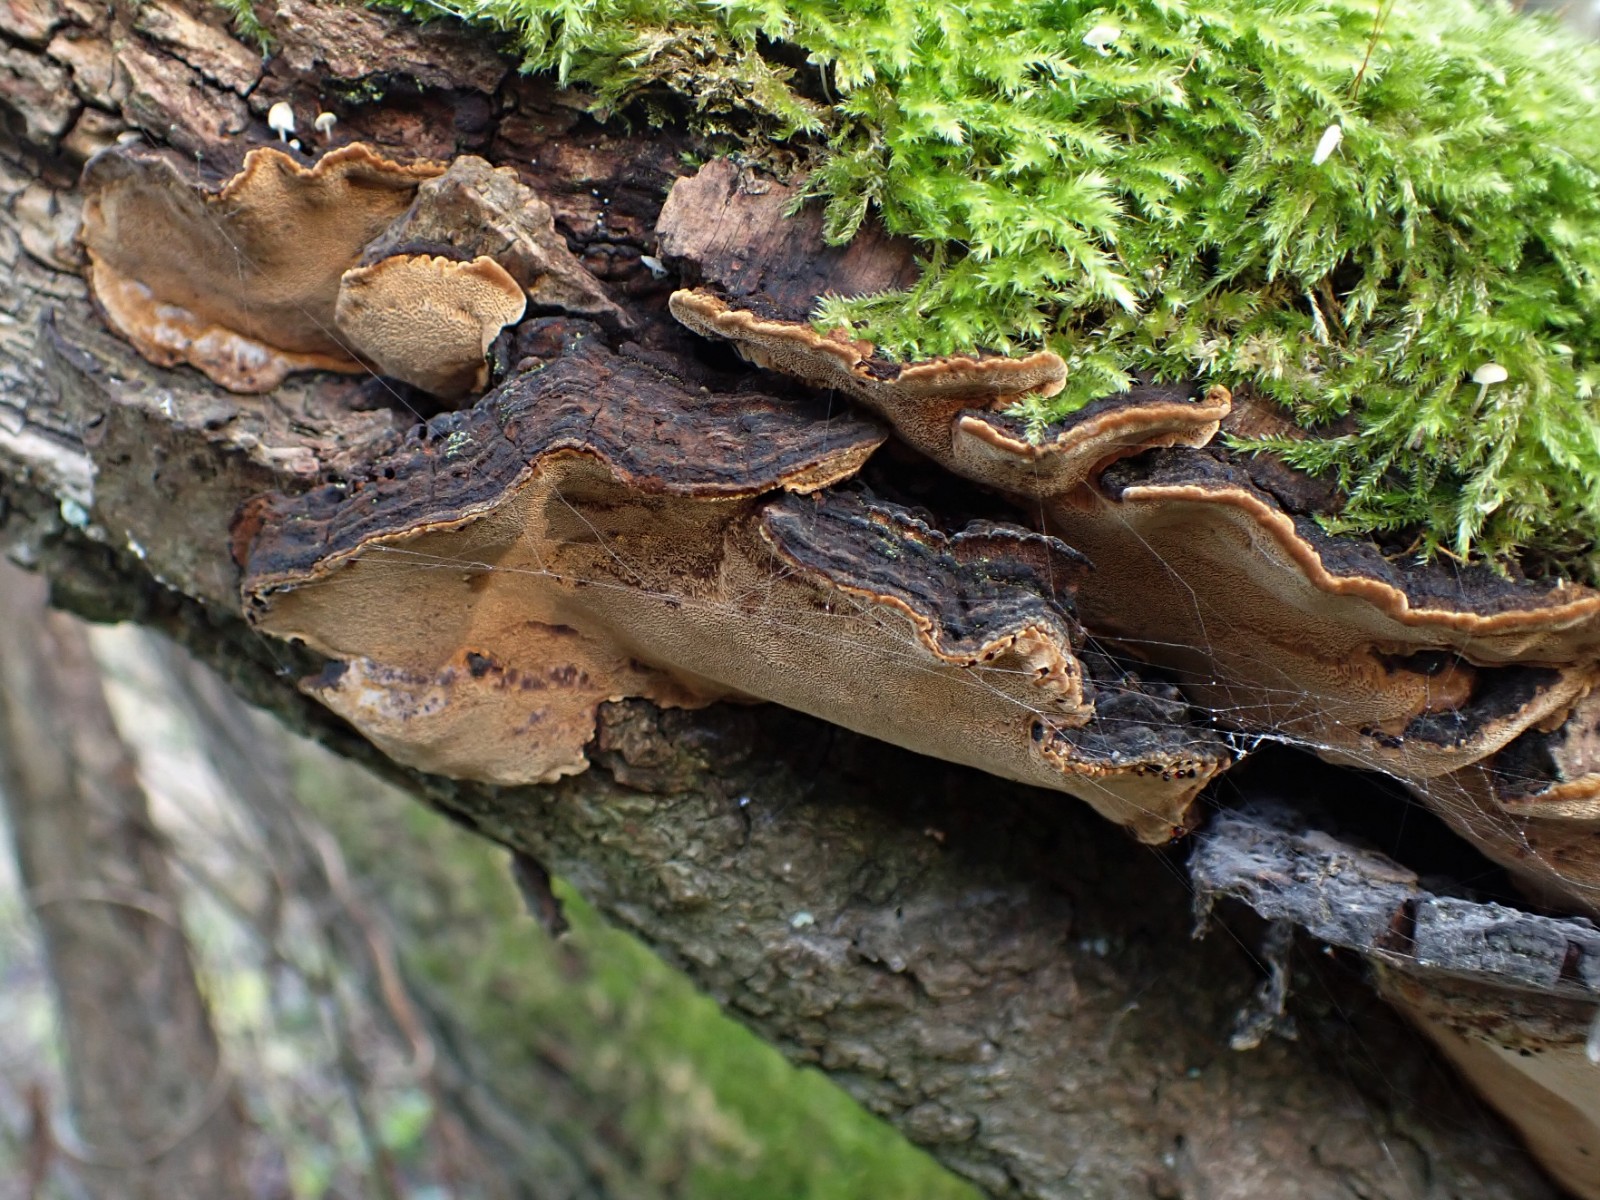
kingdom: Fungi
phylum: Basidiomycota
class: Agaricomycetes
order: Hymenochaetales
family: Hymenochaetaceae
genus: Phellinopsis
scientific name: Phellinopsis conchata
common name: pile-ildporesvamp
